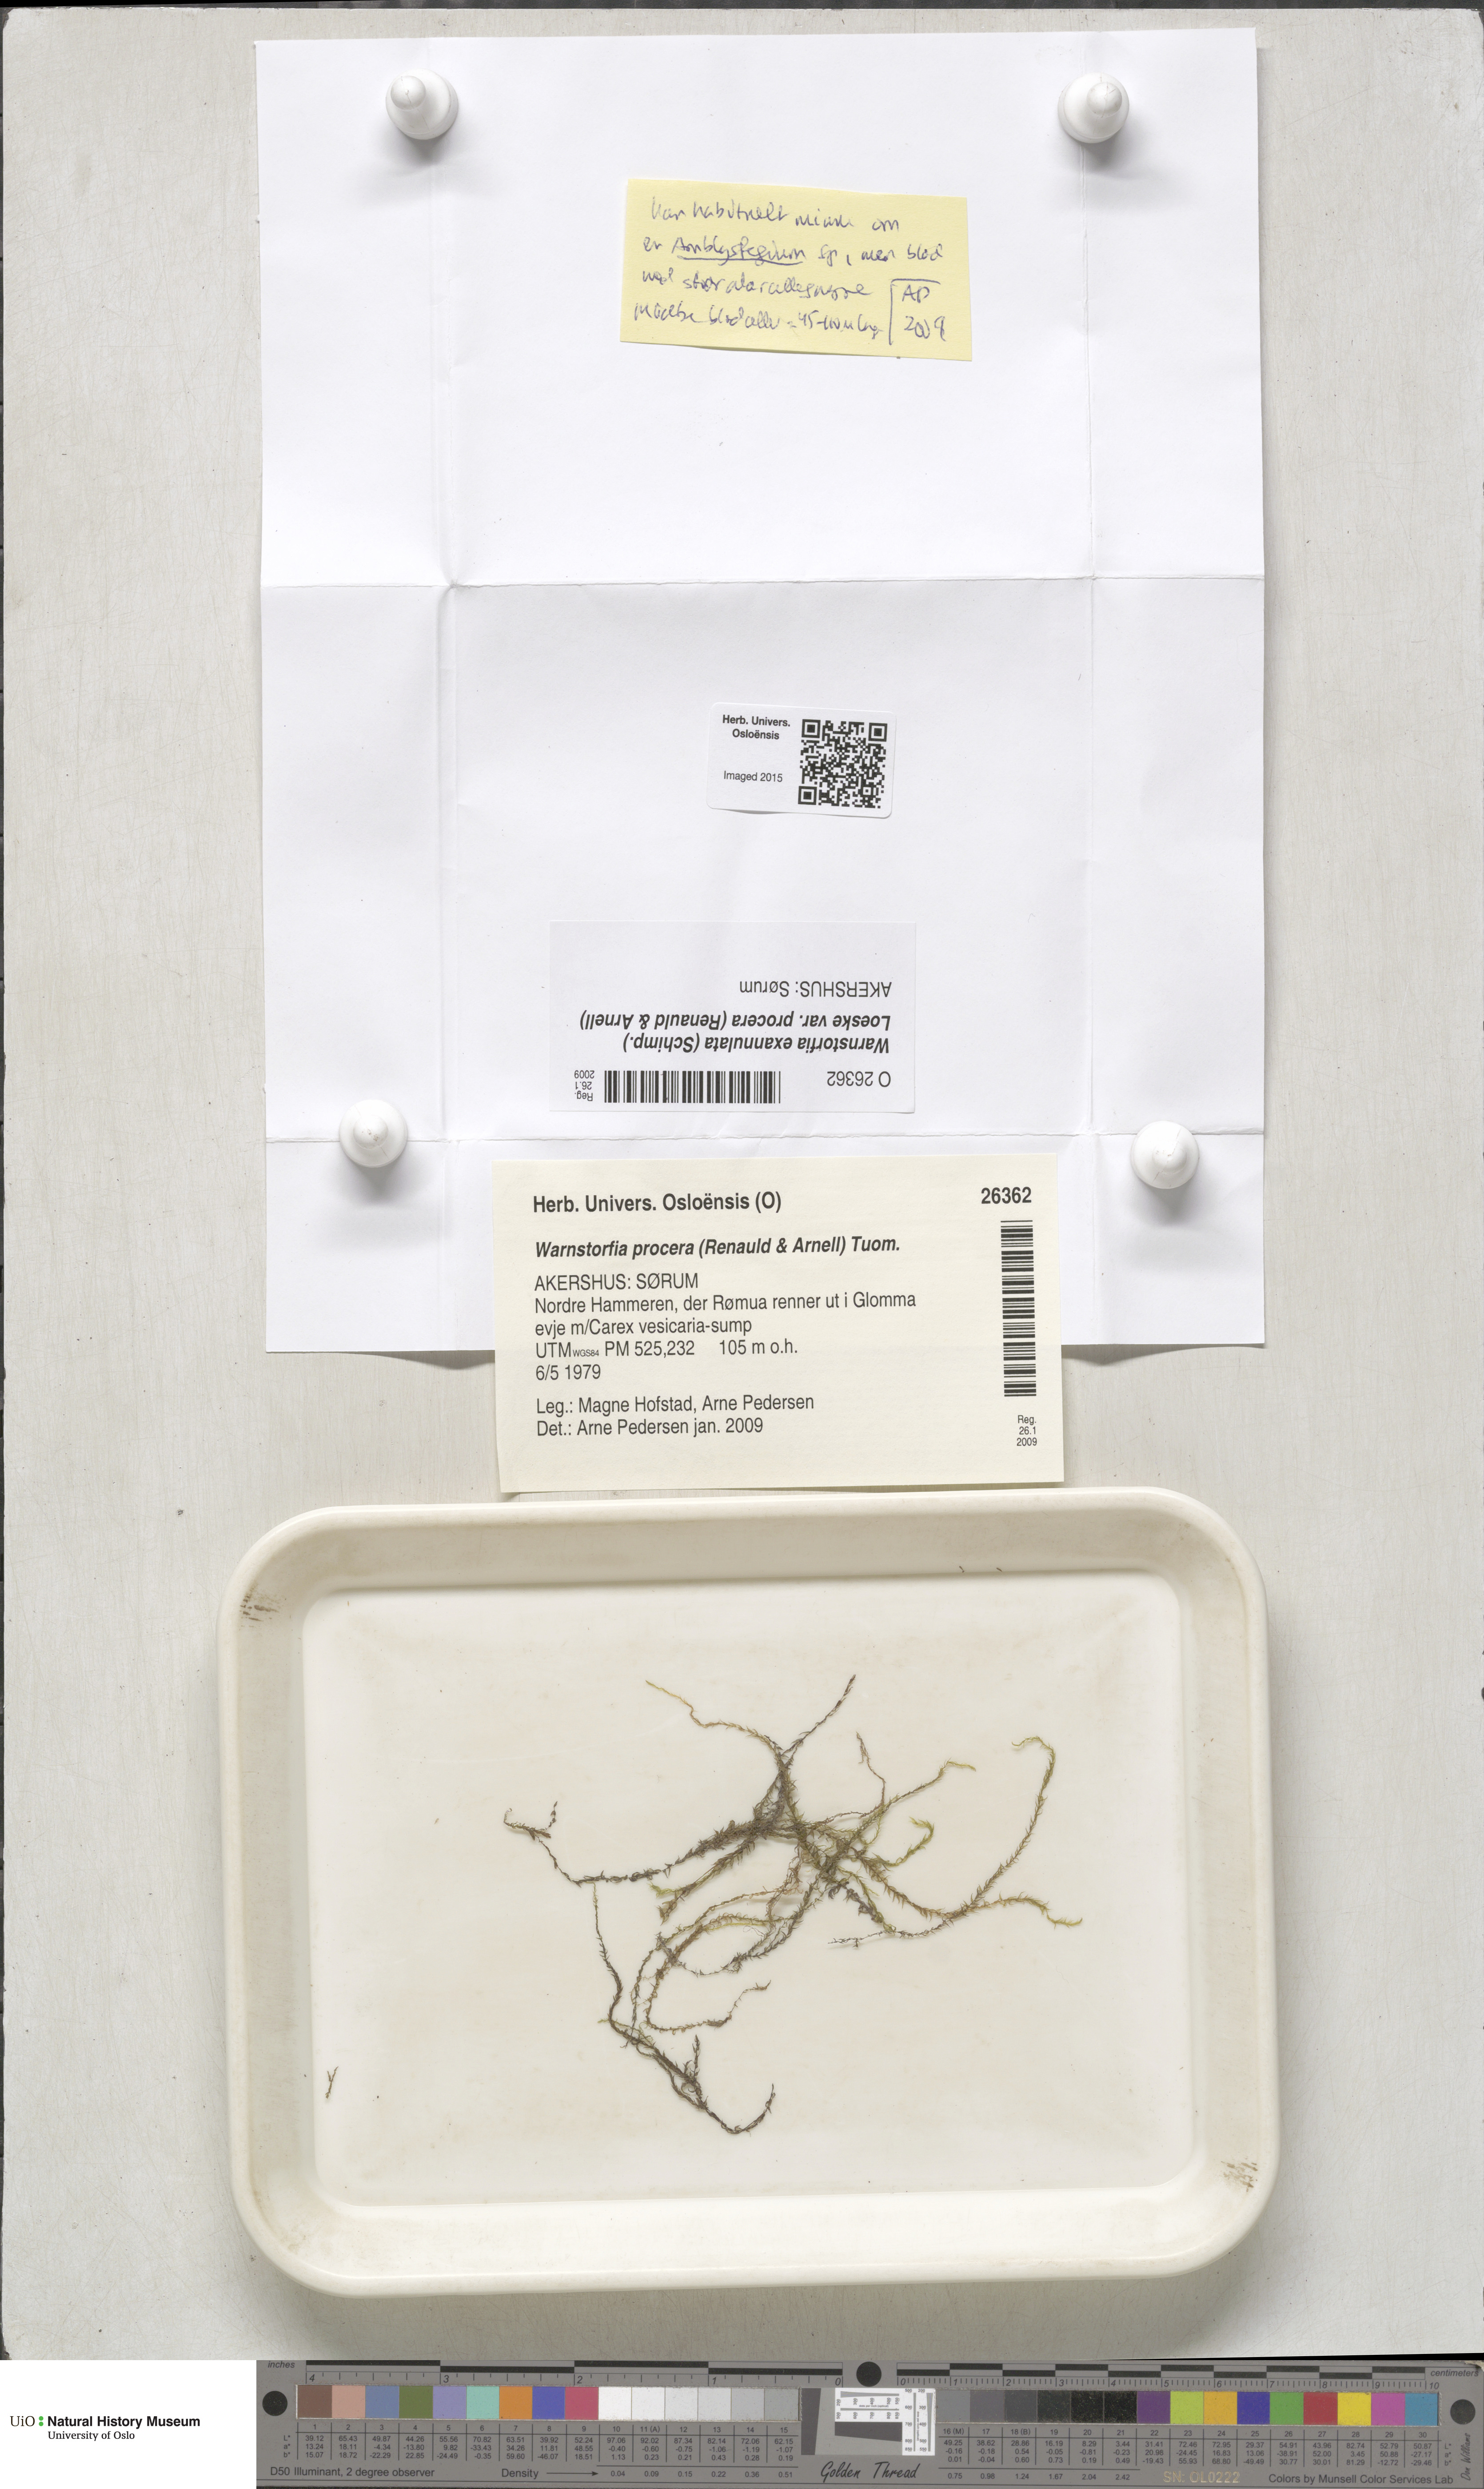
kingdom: Plantae
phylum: Bryophyta
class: Bryopsida
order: Hypnales
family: Calliergonaceae
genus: Sarmentypnum
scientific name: Sarmentypnum procerum
